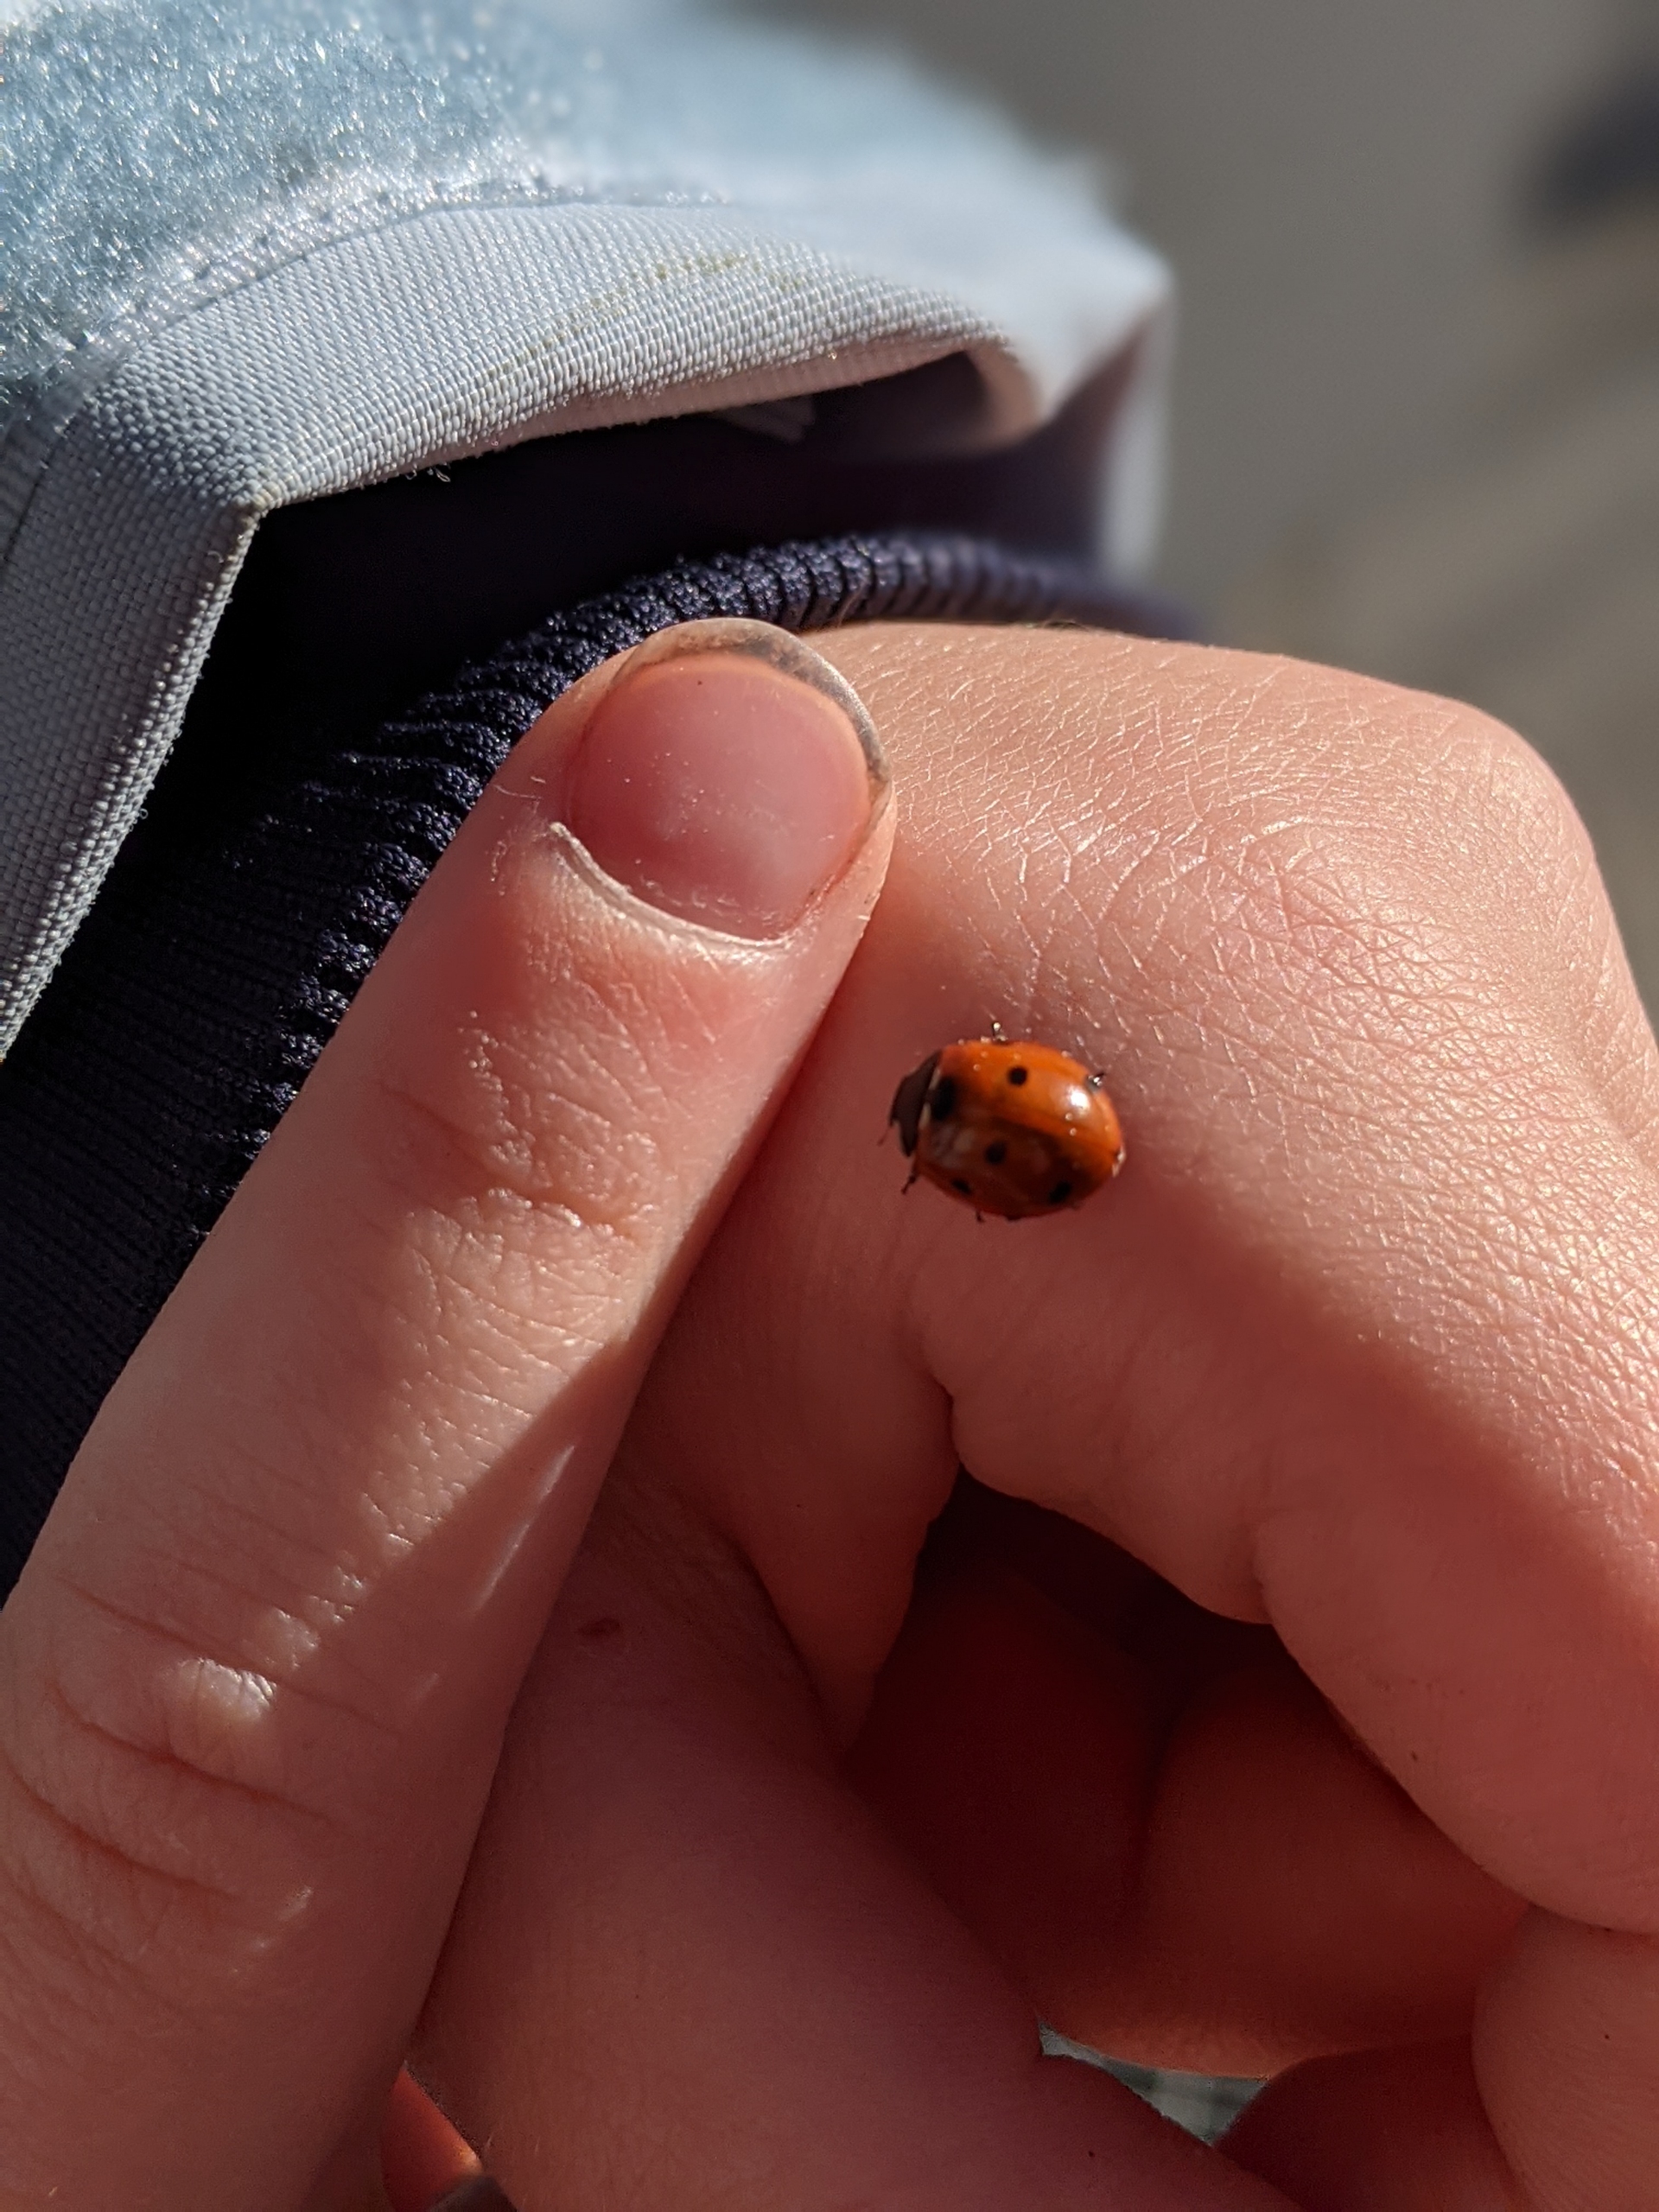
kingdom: Animalia
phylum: Arthropoda
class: Insecta
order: Coleoptera
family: Coccinellidae
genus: Coccinella
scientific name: Coccinella septempunctata
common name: Syvplettet mariehøne
